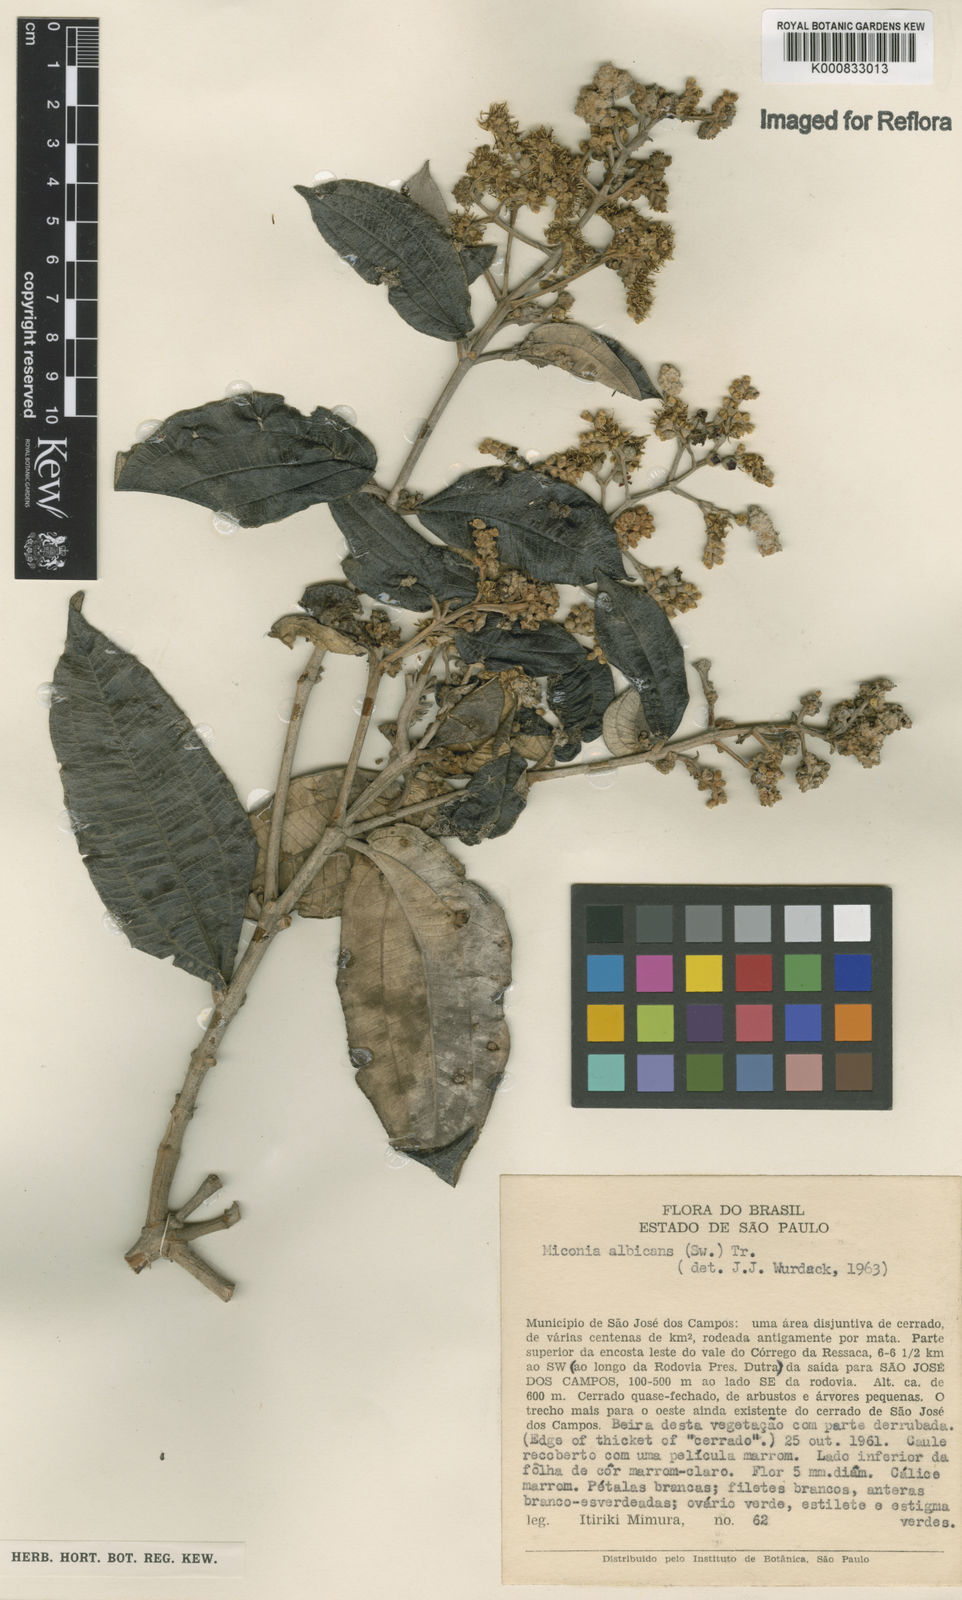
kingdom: Plantae
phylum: Tracheophyta
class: Magnoliopsida
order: Myrtales
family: Melastomataceae
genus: Miconia
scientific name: Miconia albicans
